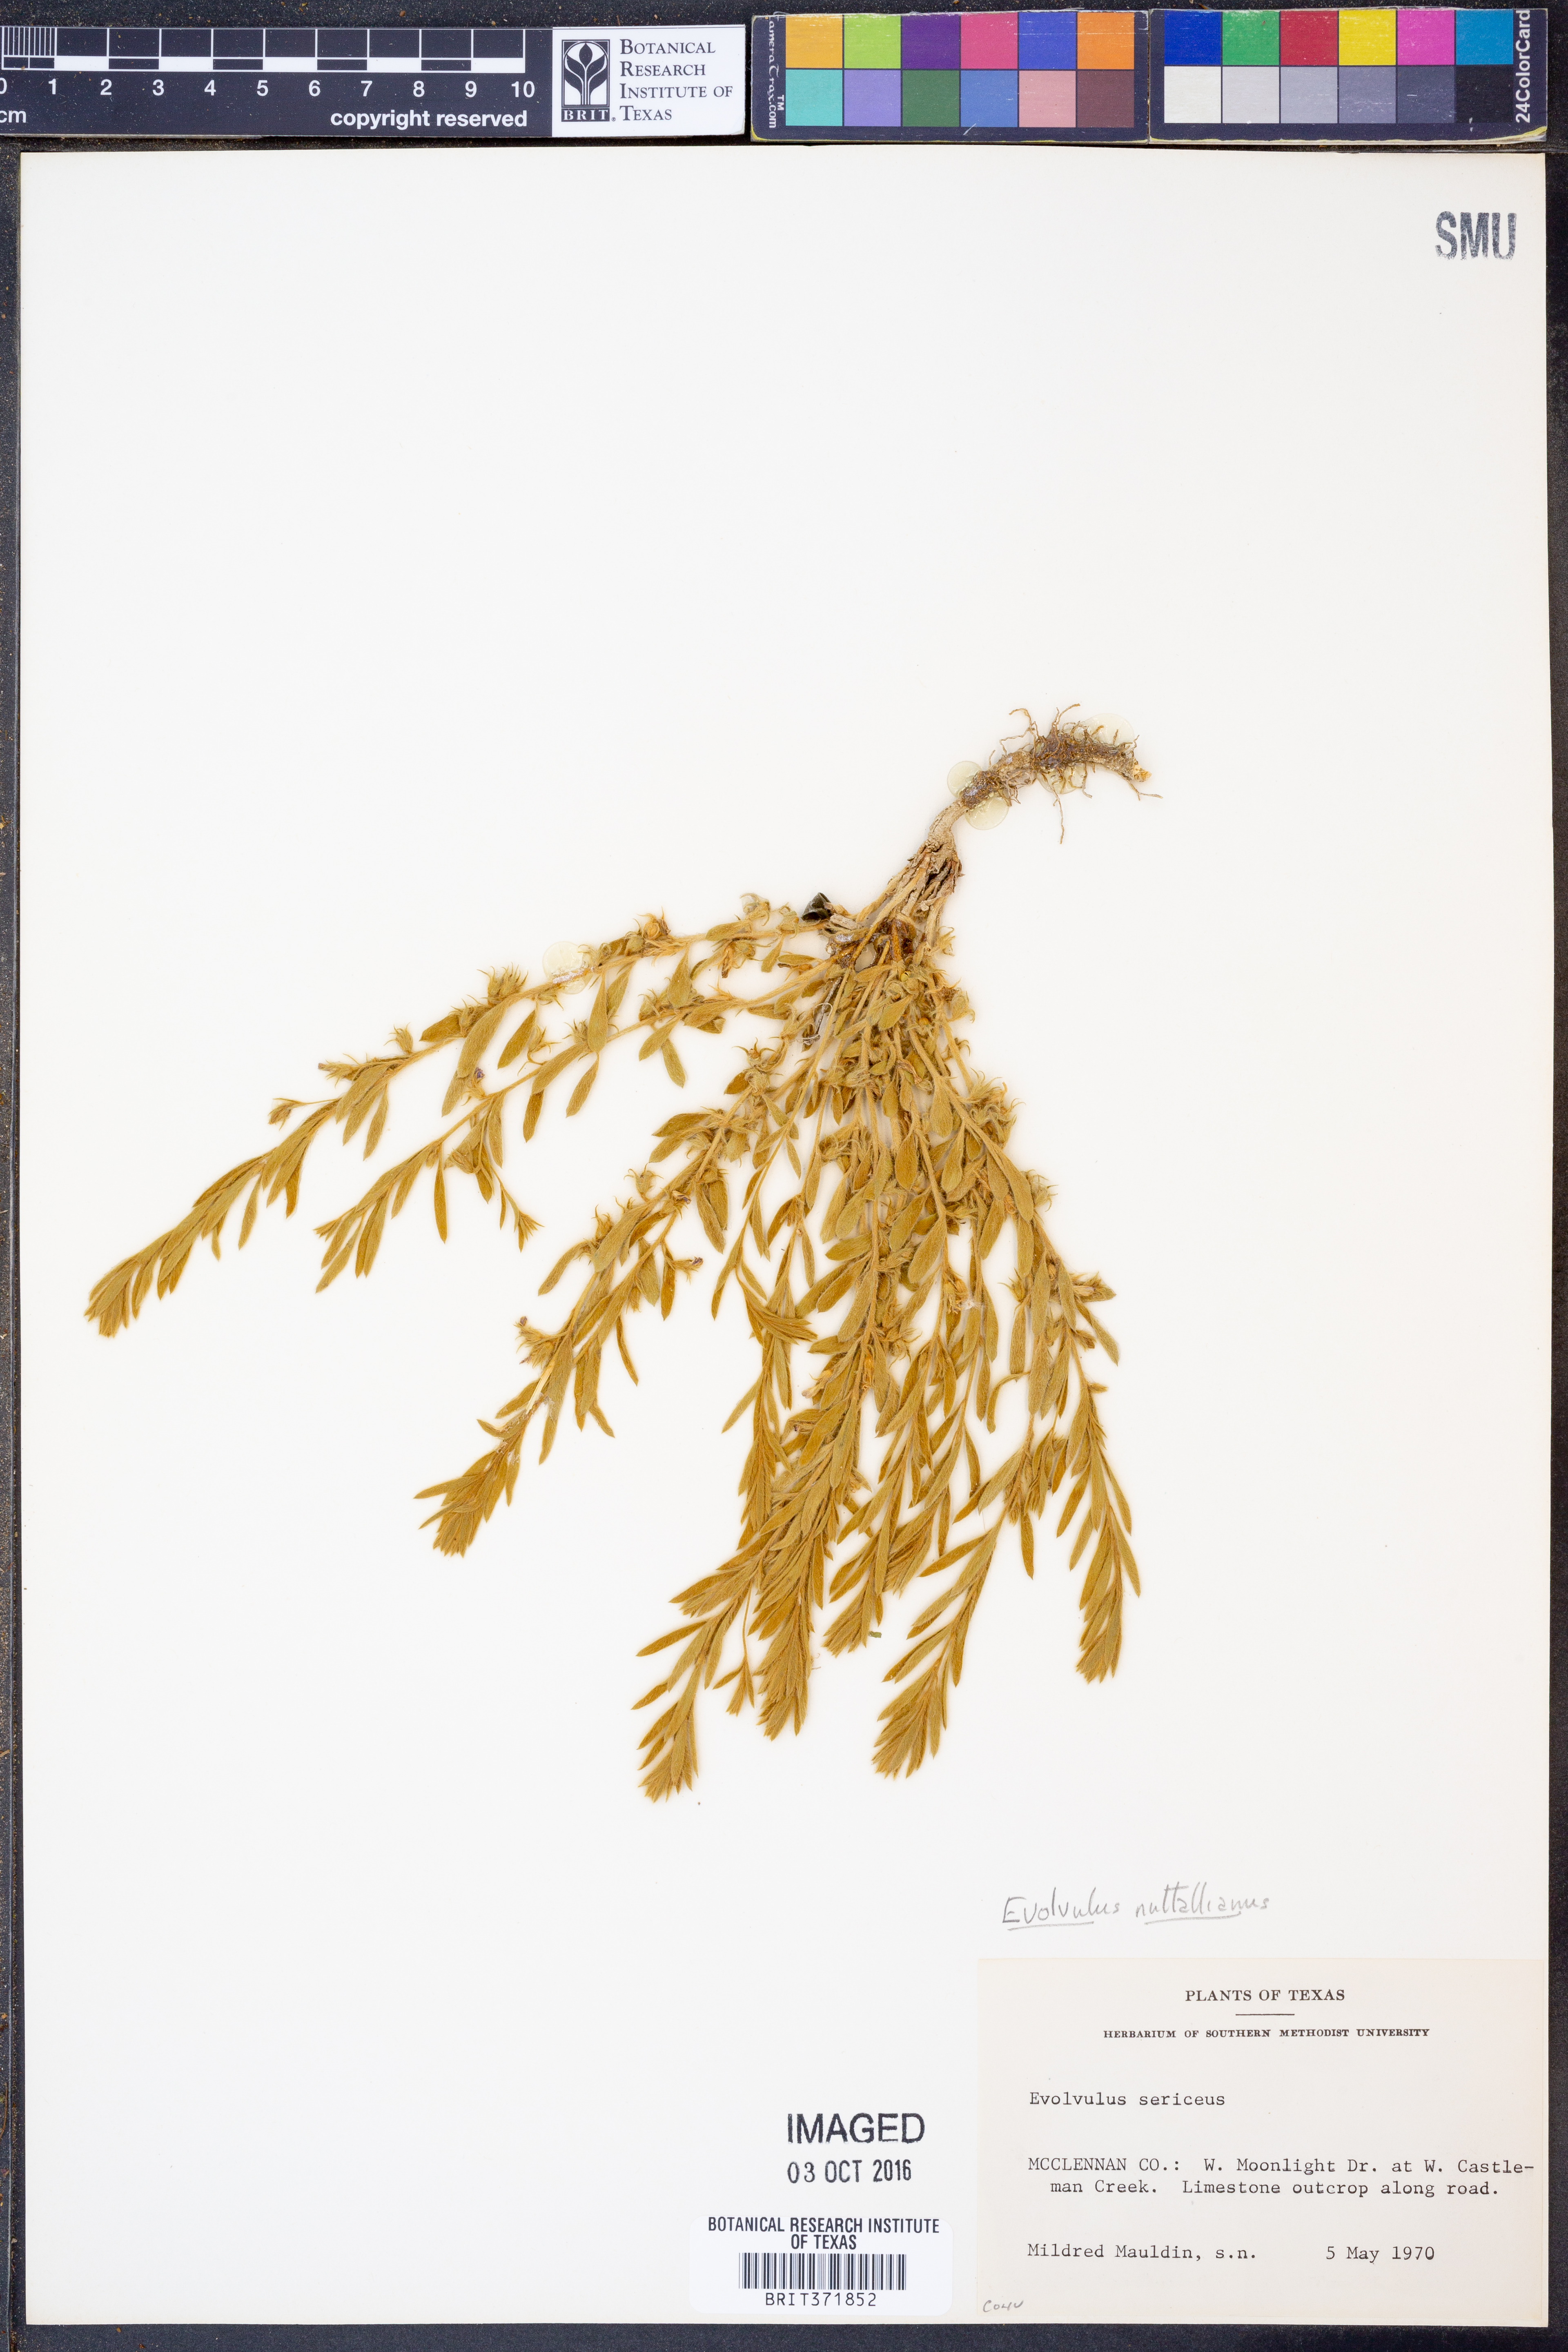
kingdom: Plantae
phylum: Tracheophyta
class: Magnoliopsida
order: Solanales
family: Convolvulaceae
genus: Evolvulus
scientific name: Evolvulus nuttallianus
